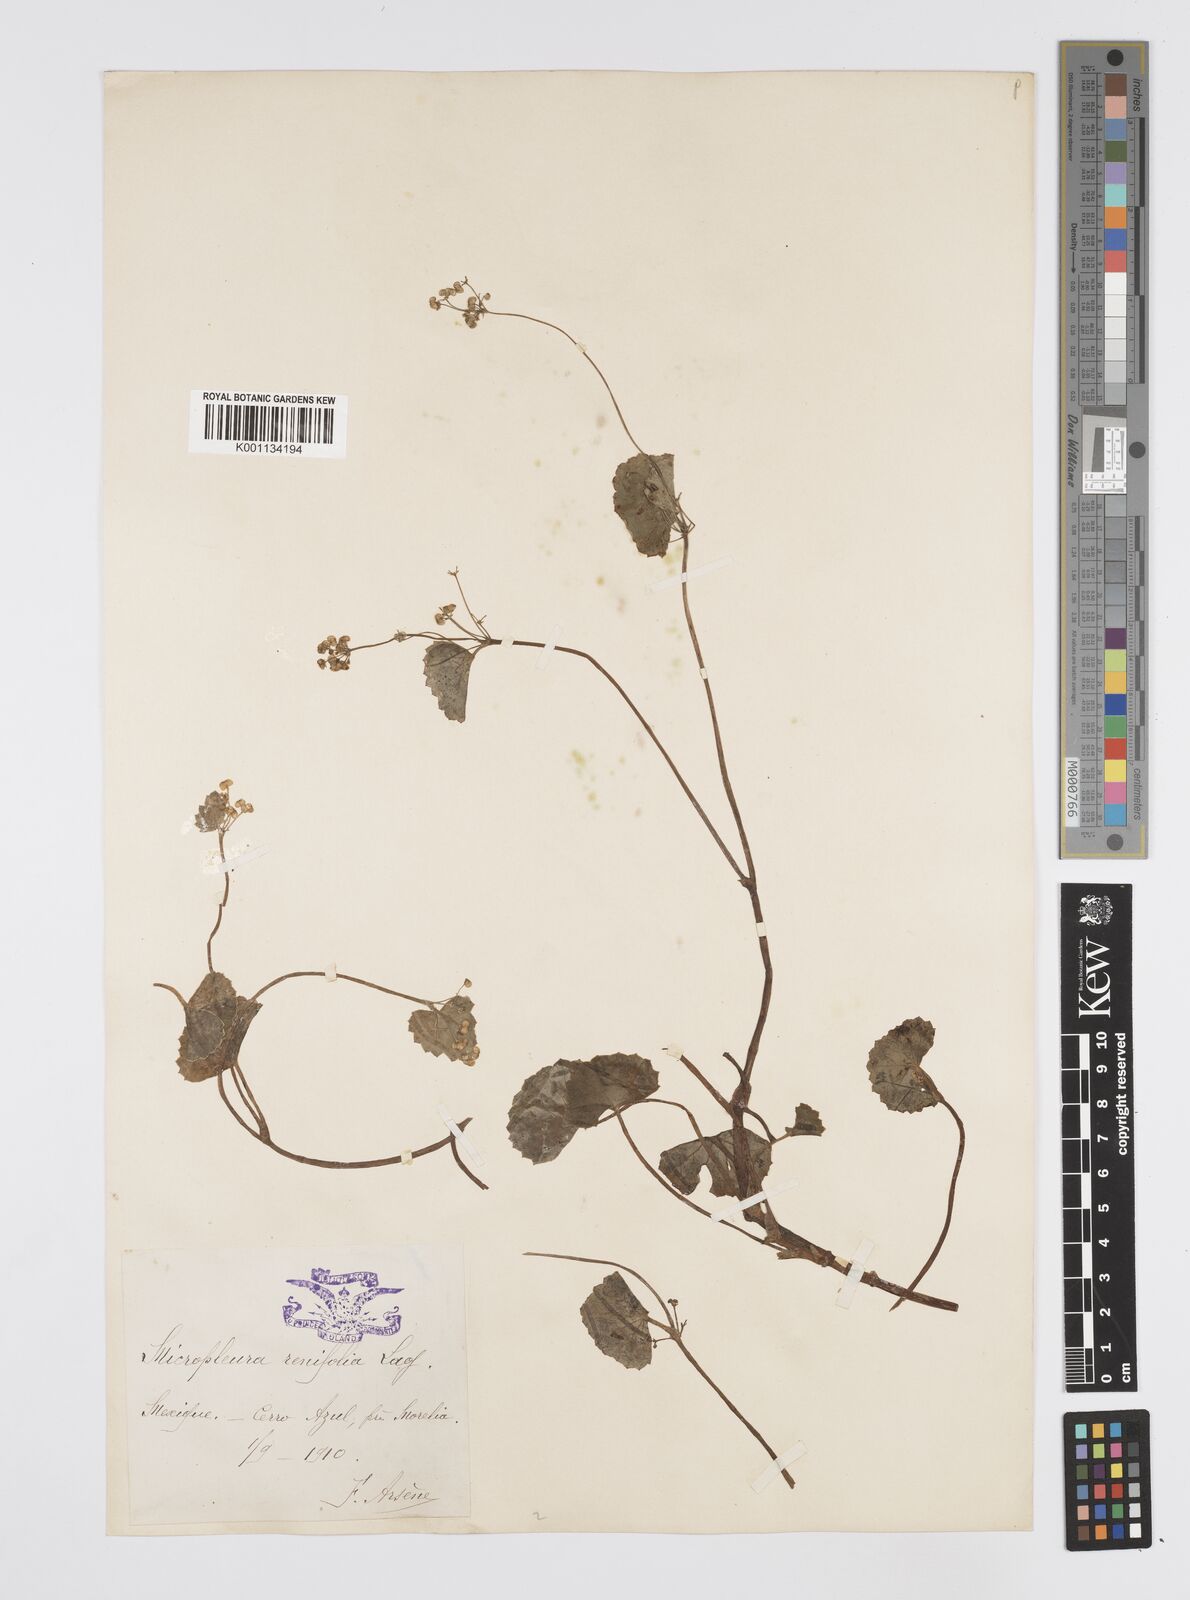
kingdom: Plantae
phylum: Tracheophyta
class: Magnoliopsida
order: Apiales
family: Apiaceae
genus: Micropleura
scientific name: Micropleura renifolia
